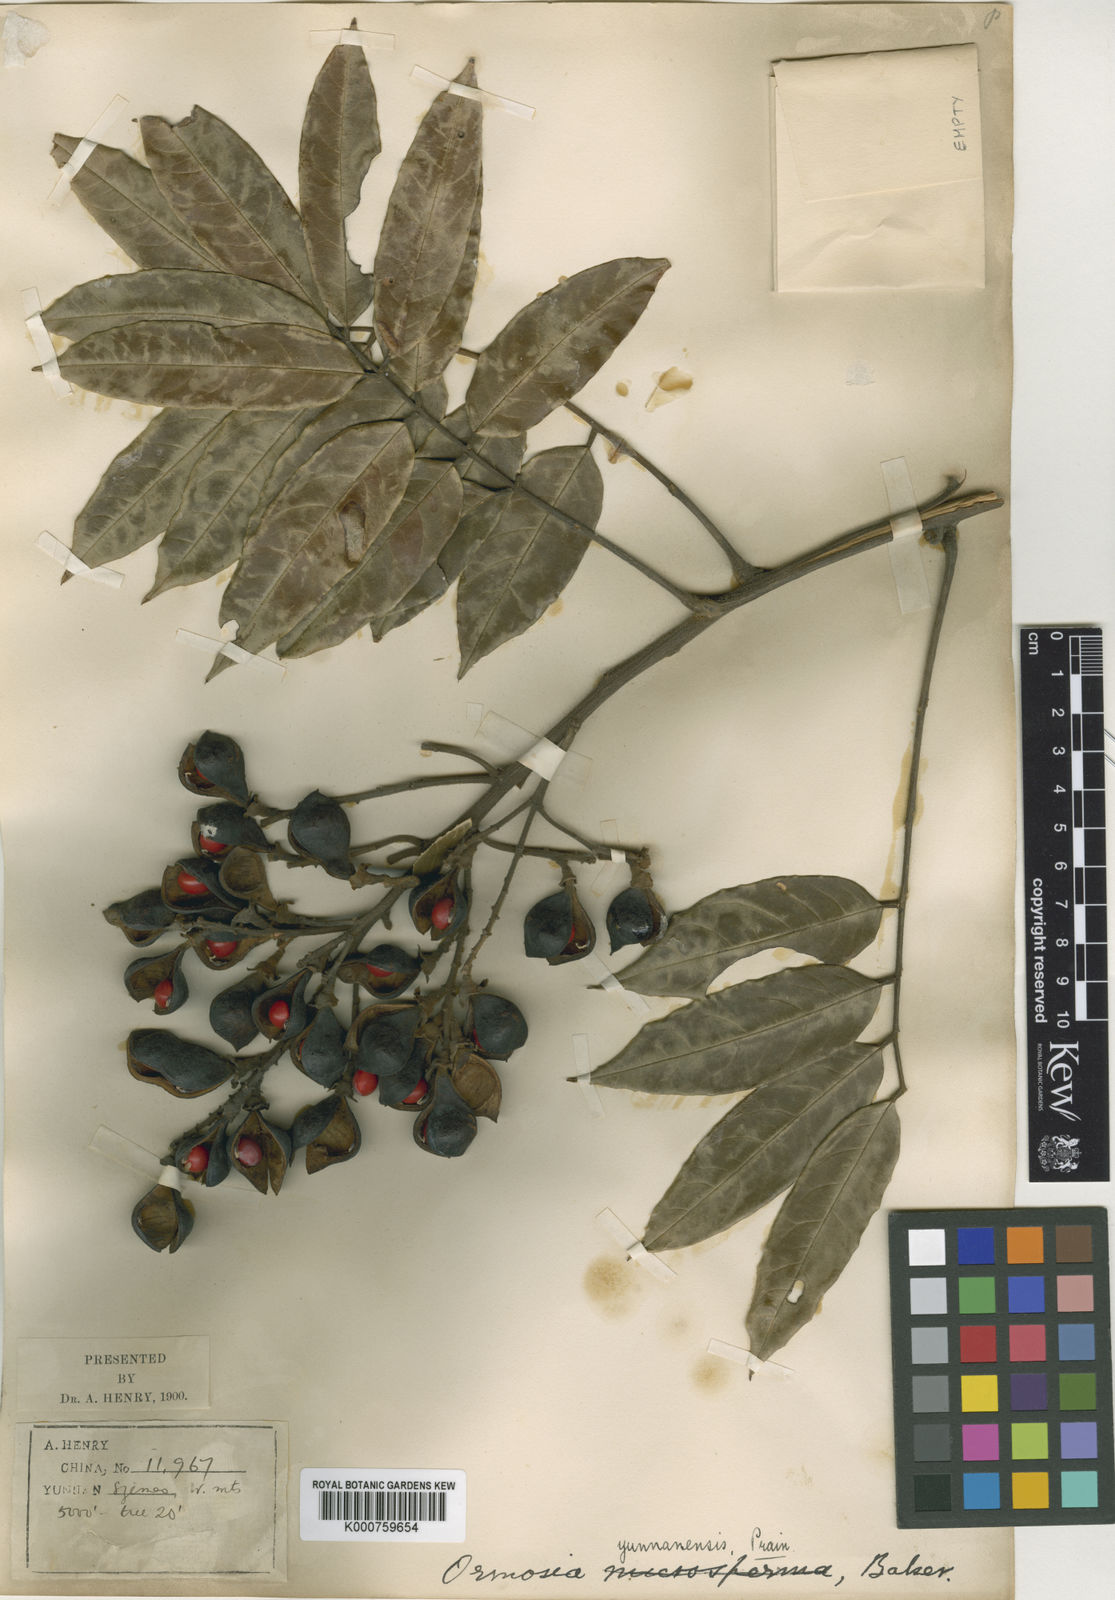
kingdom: Plantae
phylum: Tracheophyta
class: Magnoliopsida
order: Fabales
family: Fabaceae
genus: Ormosia
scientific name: Ormosia yunnanensis
